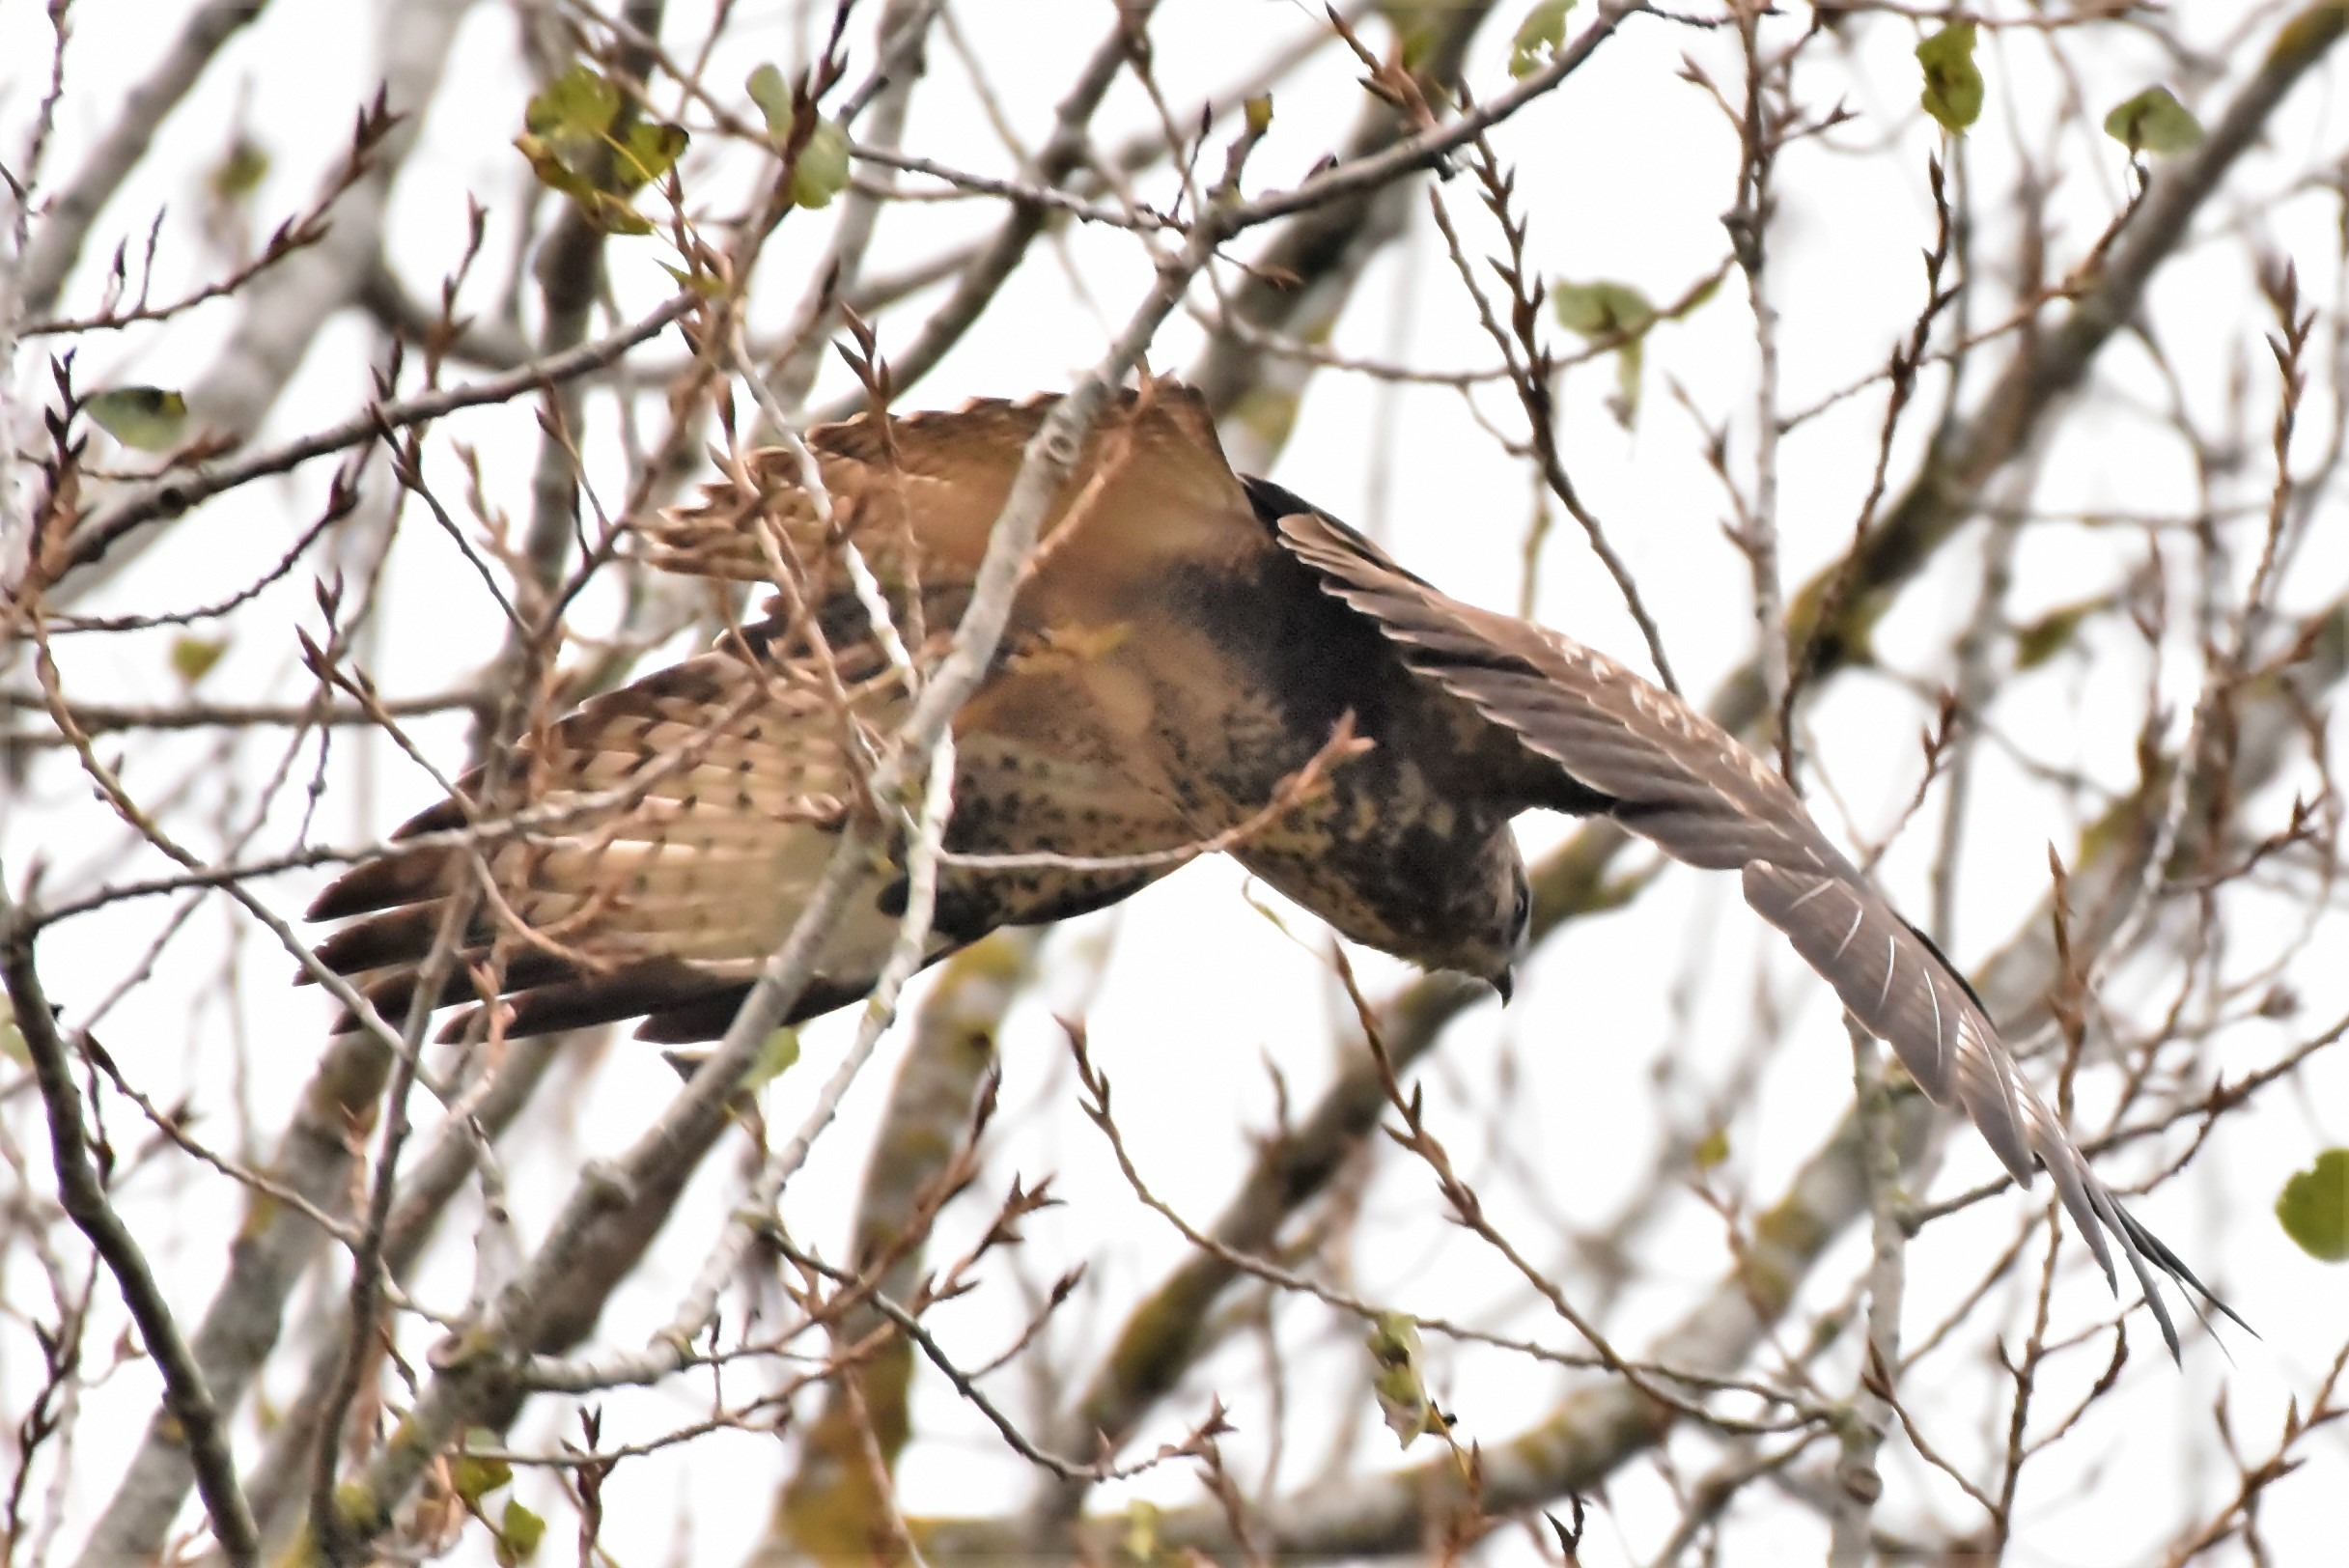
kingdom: Animalia
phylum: Chordata
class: Aves
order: Accipitriformes
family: Accipitridae
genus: Buteo
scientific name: Buteo buteo
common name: Musvåge
